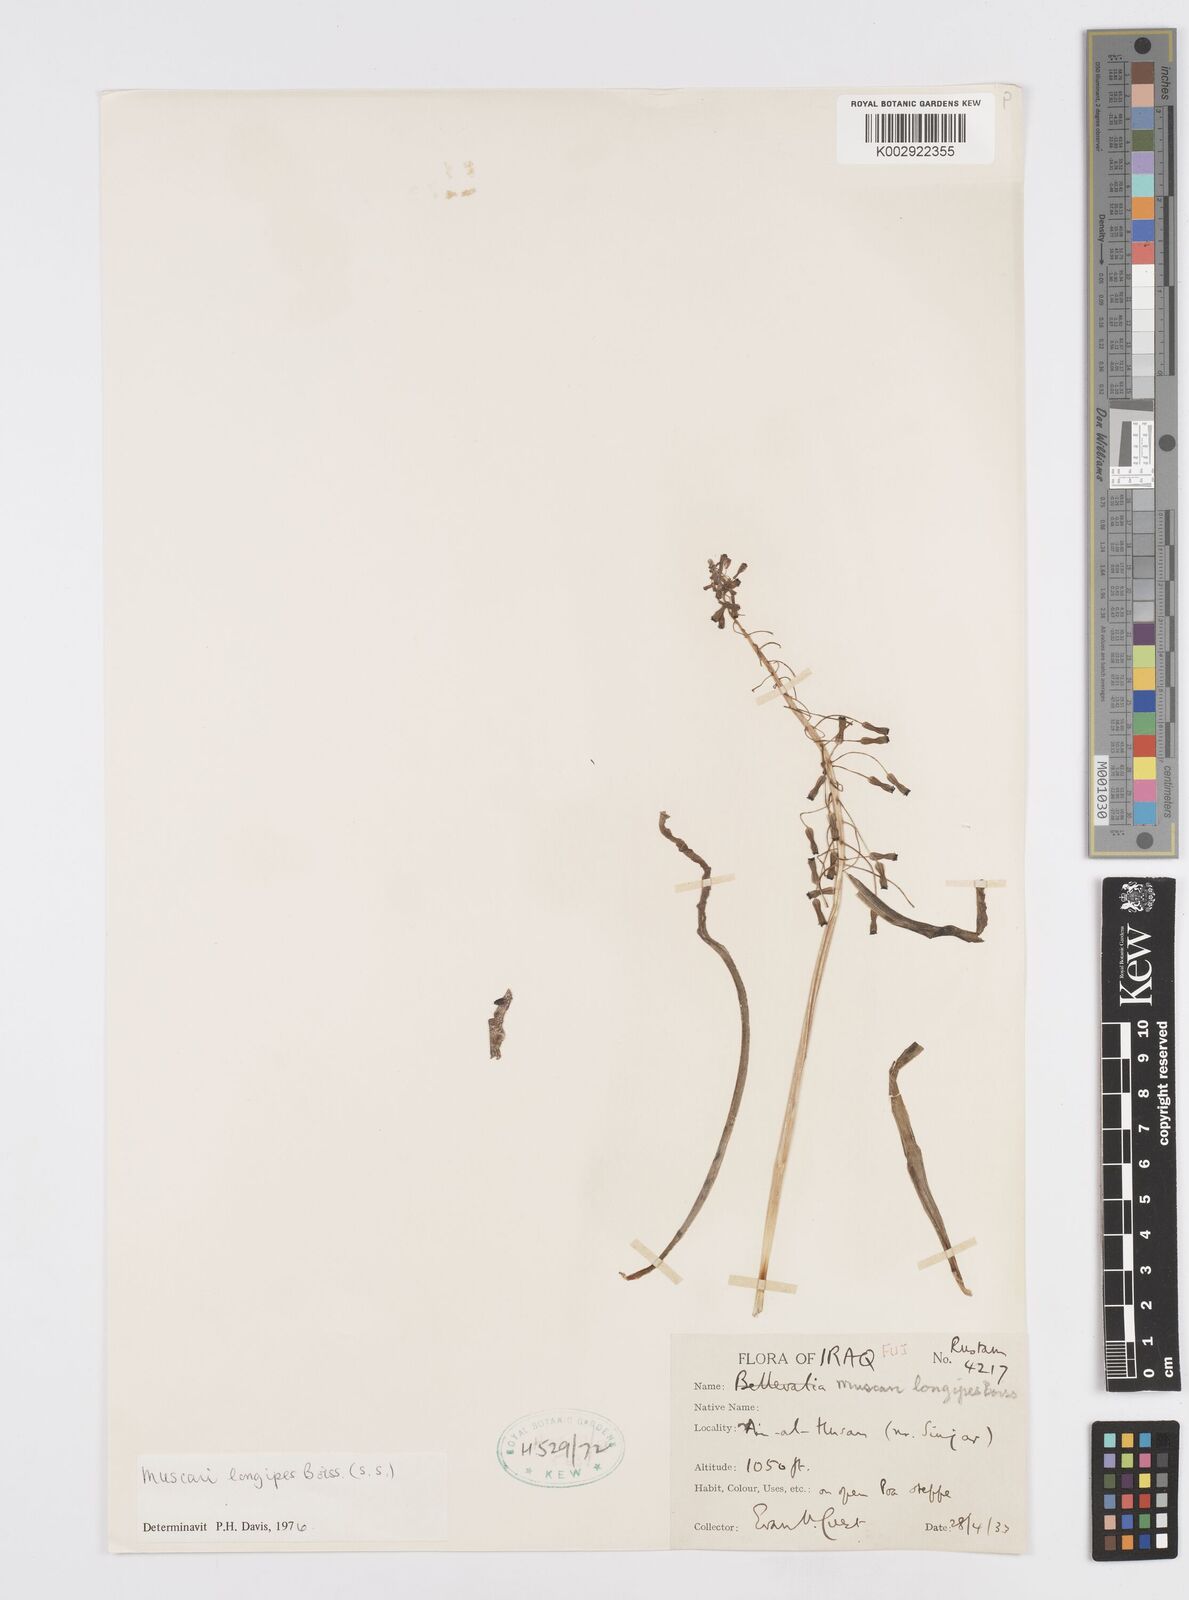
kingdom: Plantae
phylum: Tracheophyta
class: Liliopsida
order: Asparagales
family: Asparagaceae
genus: Muscari
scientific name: Muscari longipes
